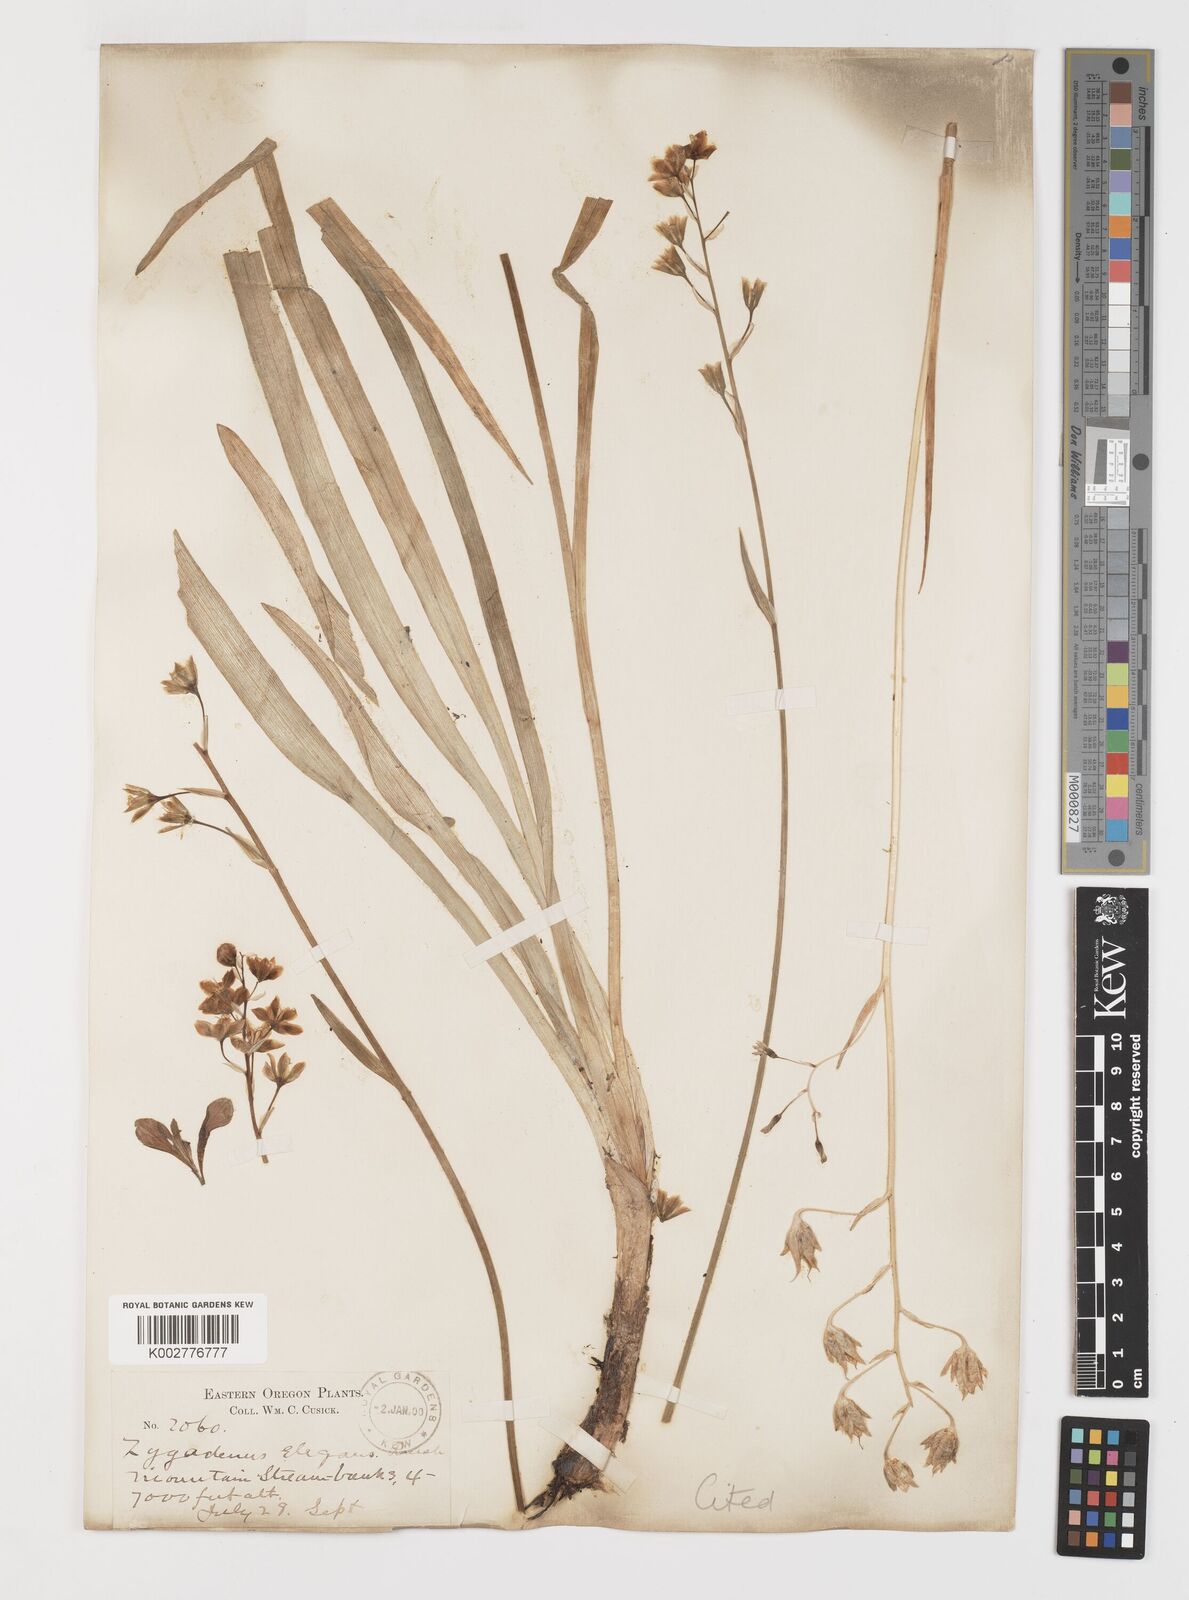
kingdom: Plantae
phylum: Tracheophyta
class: Liliopsida
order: Liliales
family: Melanthiaceae
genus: Anticlea
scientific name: Anticlea elegans
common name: Mountain death camas
